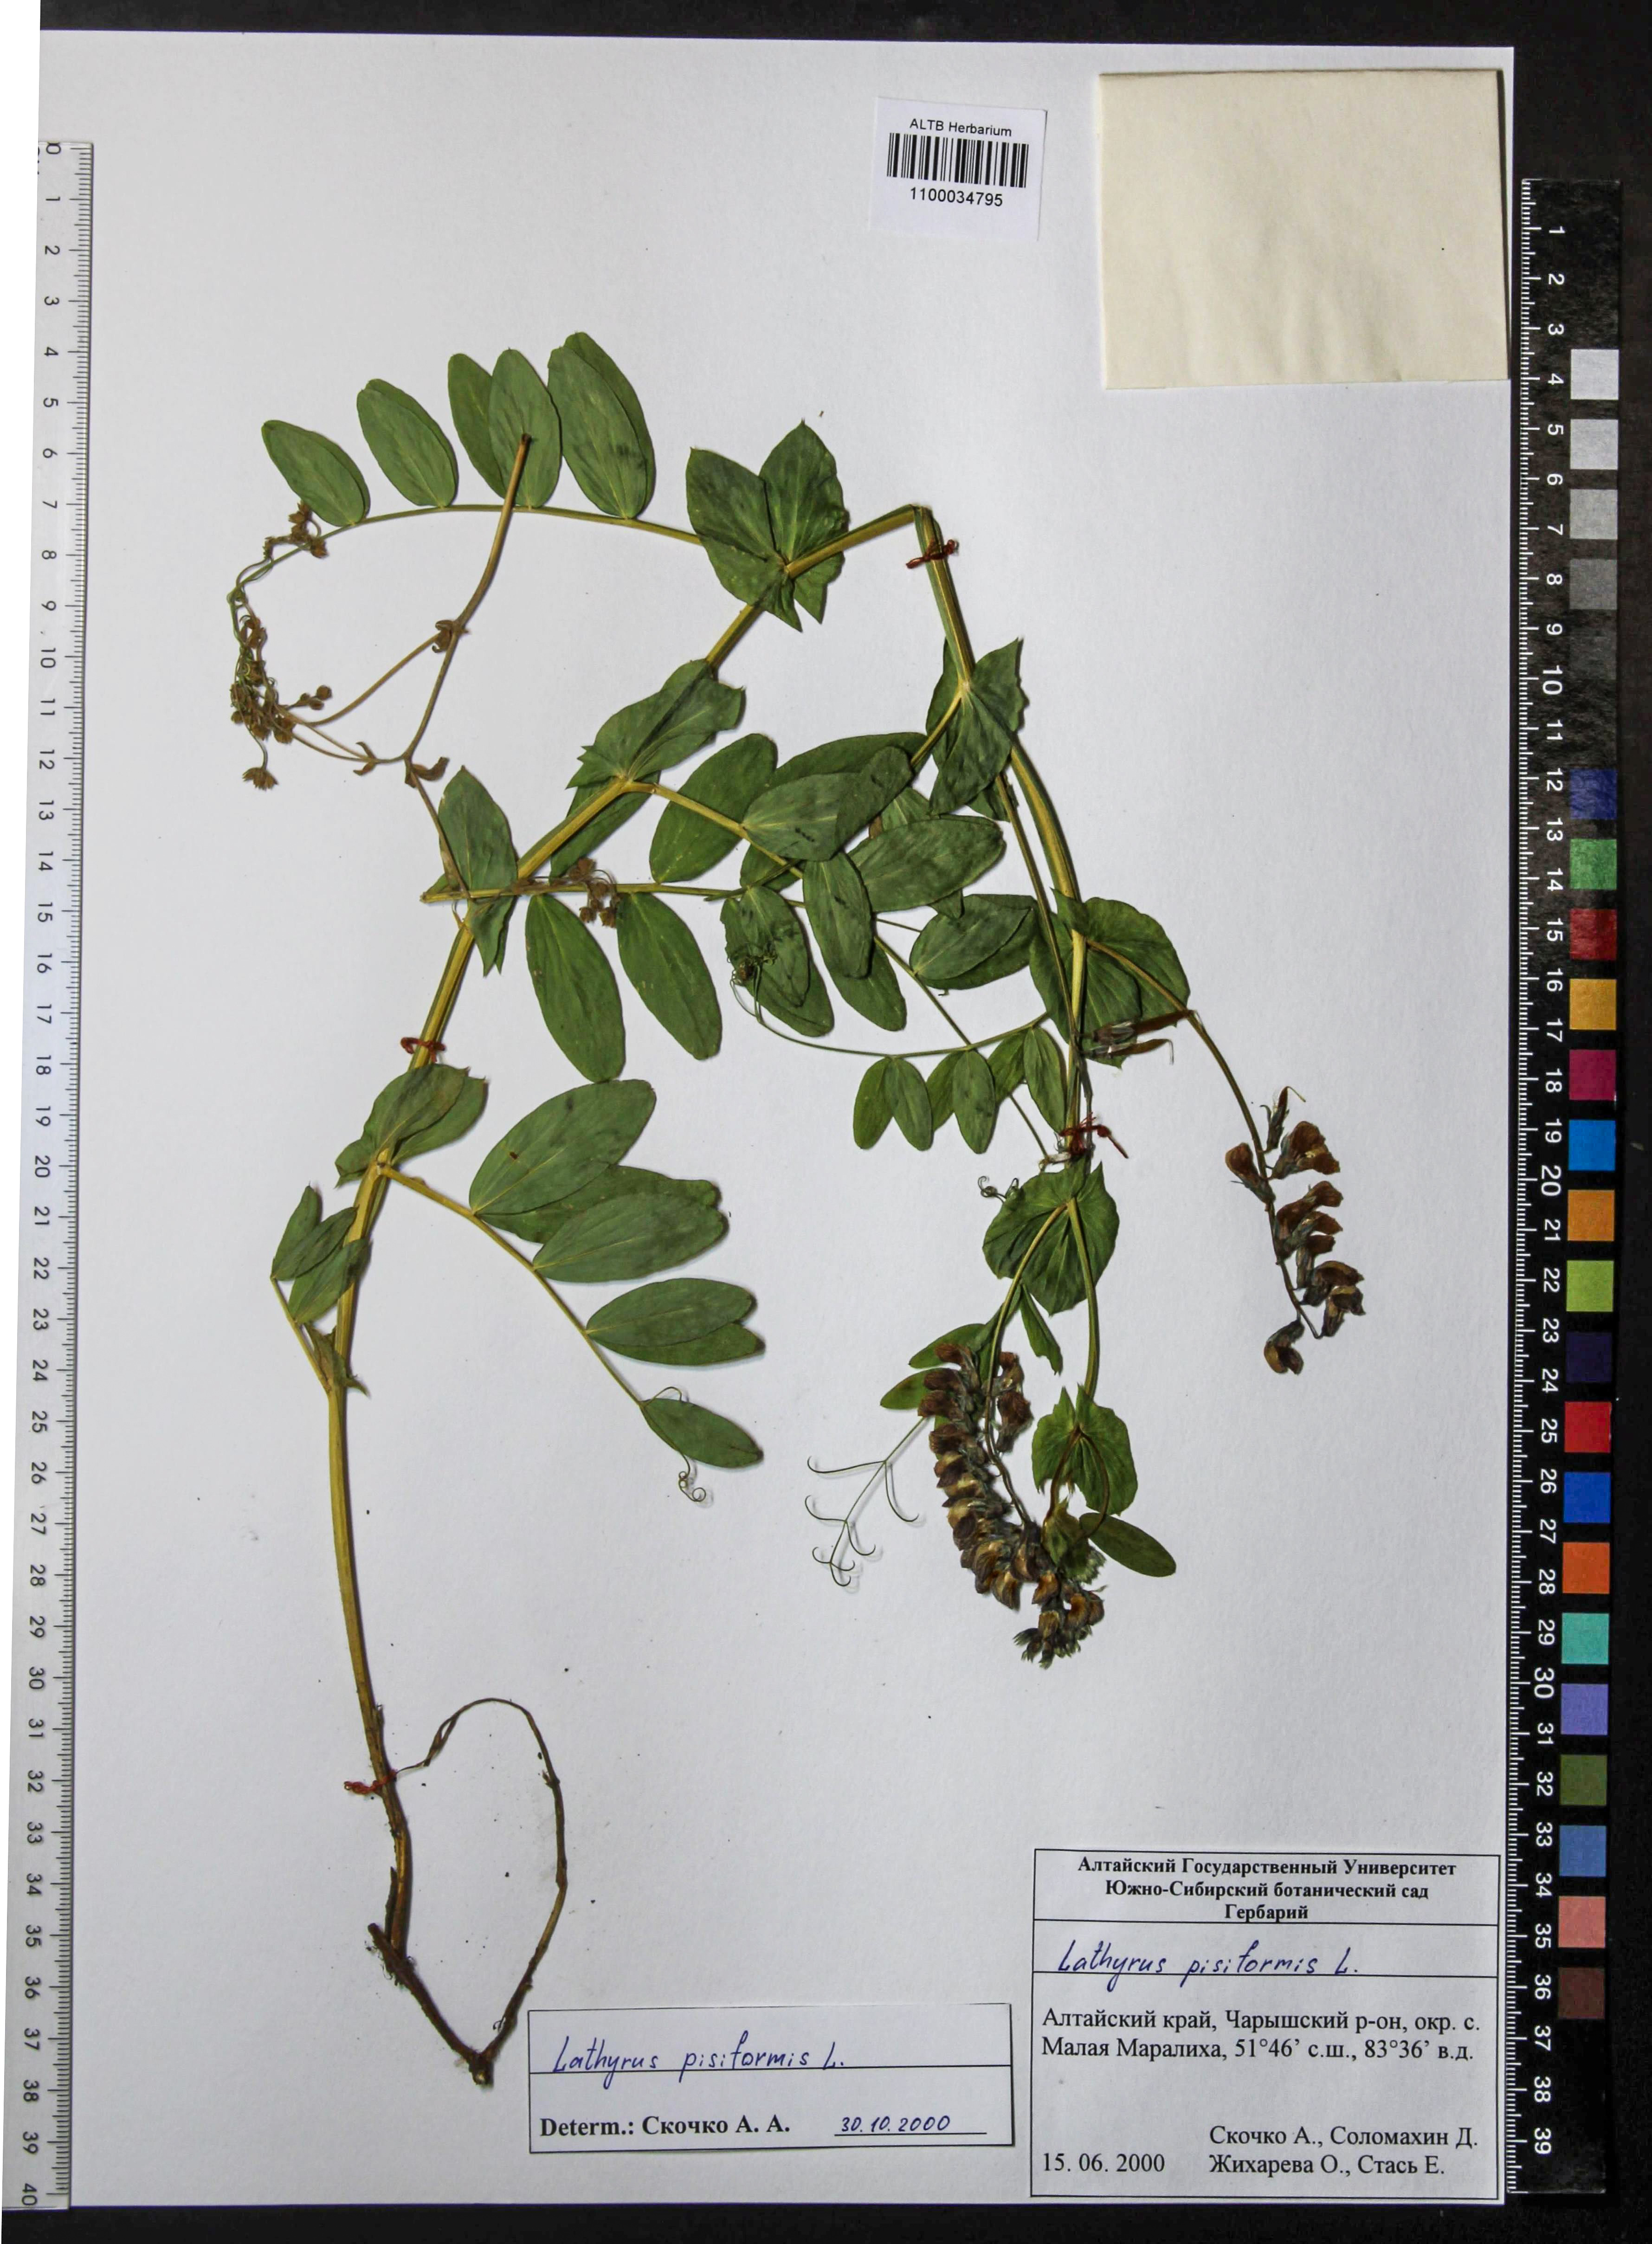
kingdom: Plantae
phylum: Tracheophyta
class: Magnoliopsida
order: Fabales
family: Fabaceae
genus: Lathyrus
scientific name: Lathyrus pisiformis
